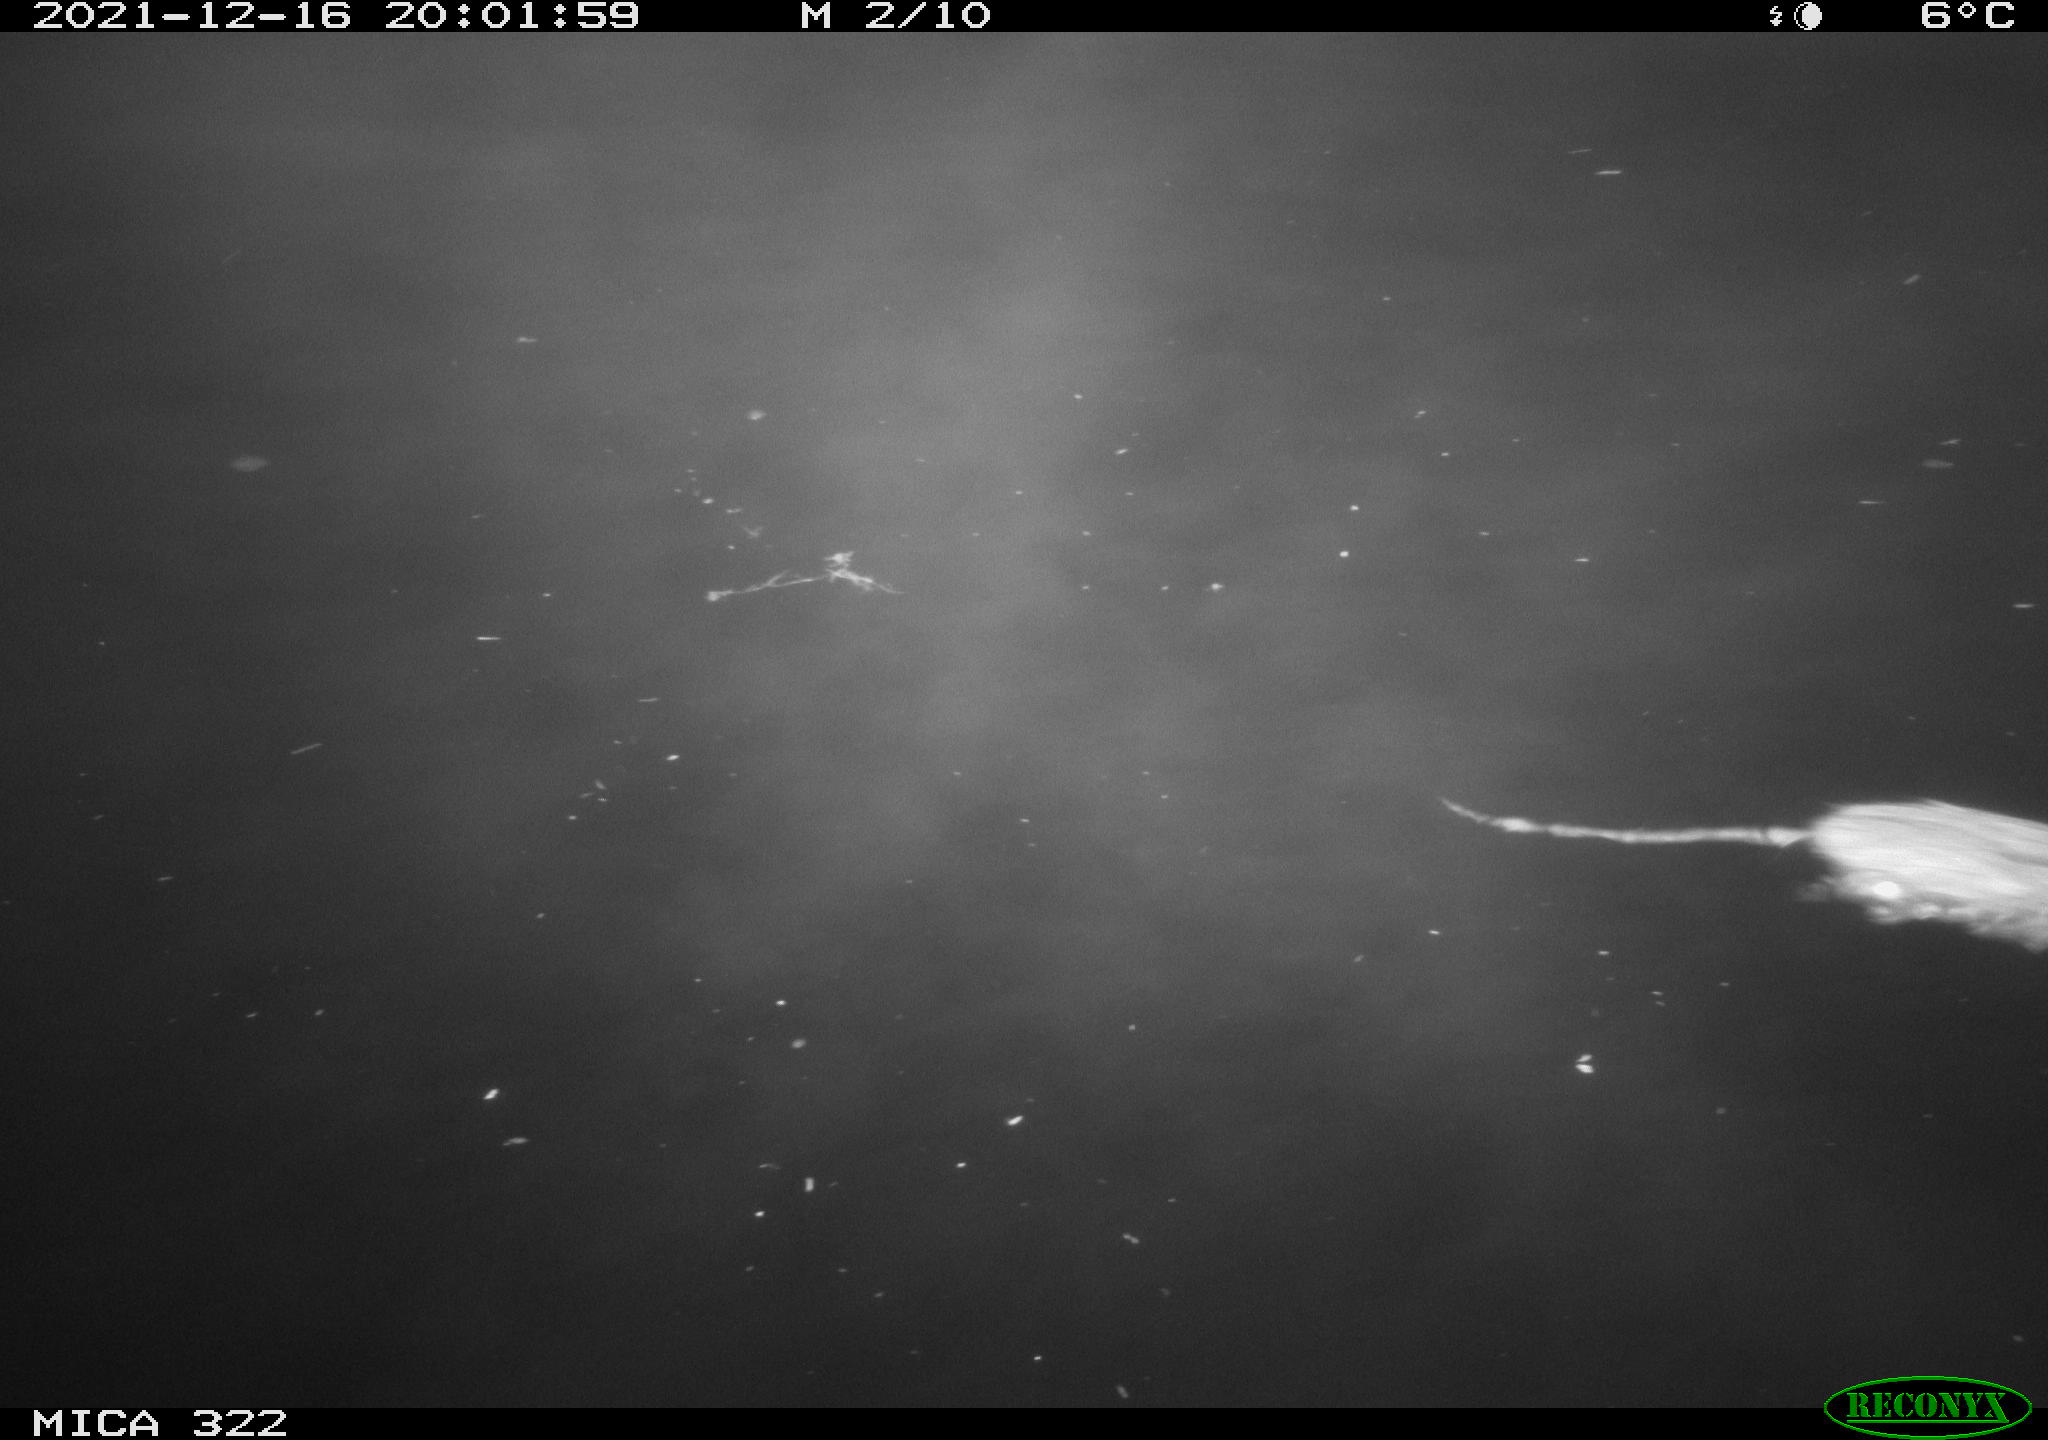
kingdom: Animalia
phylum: Chordata
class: Mammalia
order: Rodentia
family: Muridae
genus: Rattus
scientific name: Rattus norvegicus
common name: Brown rat
